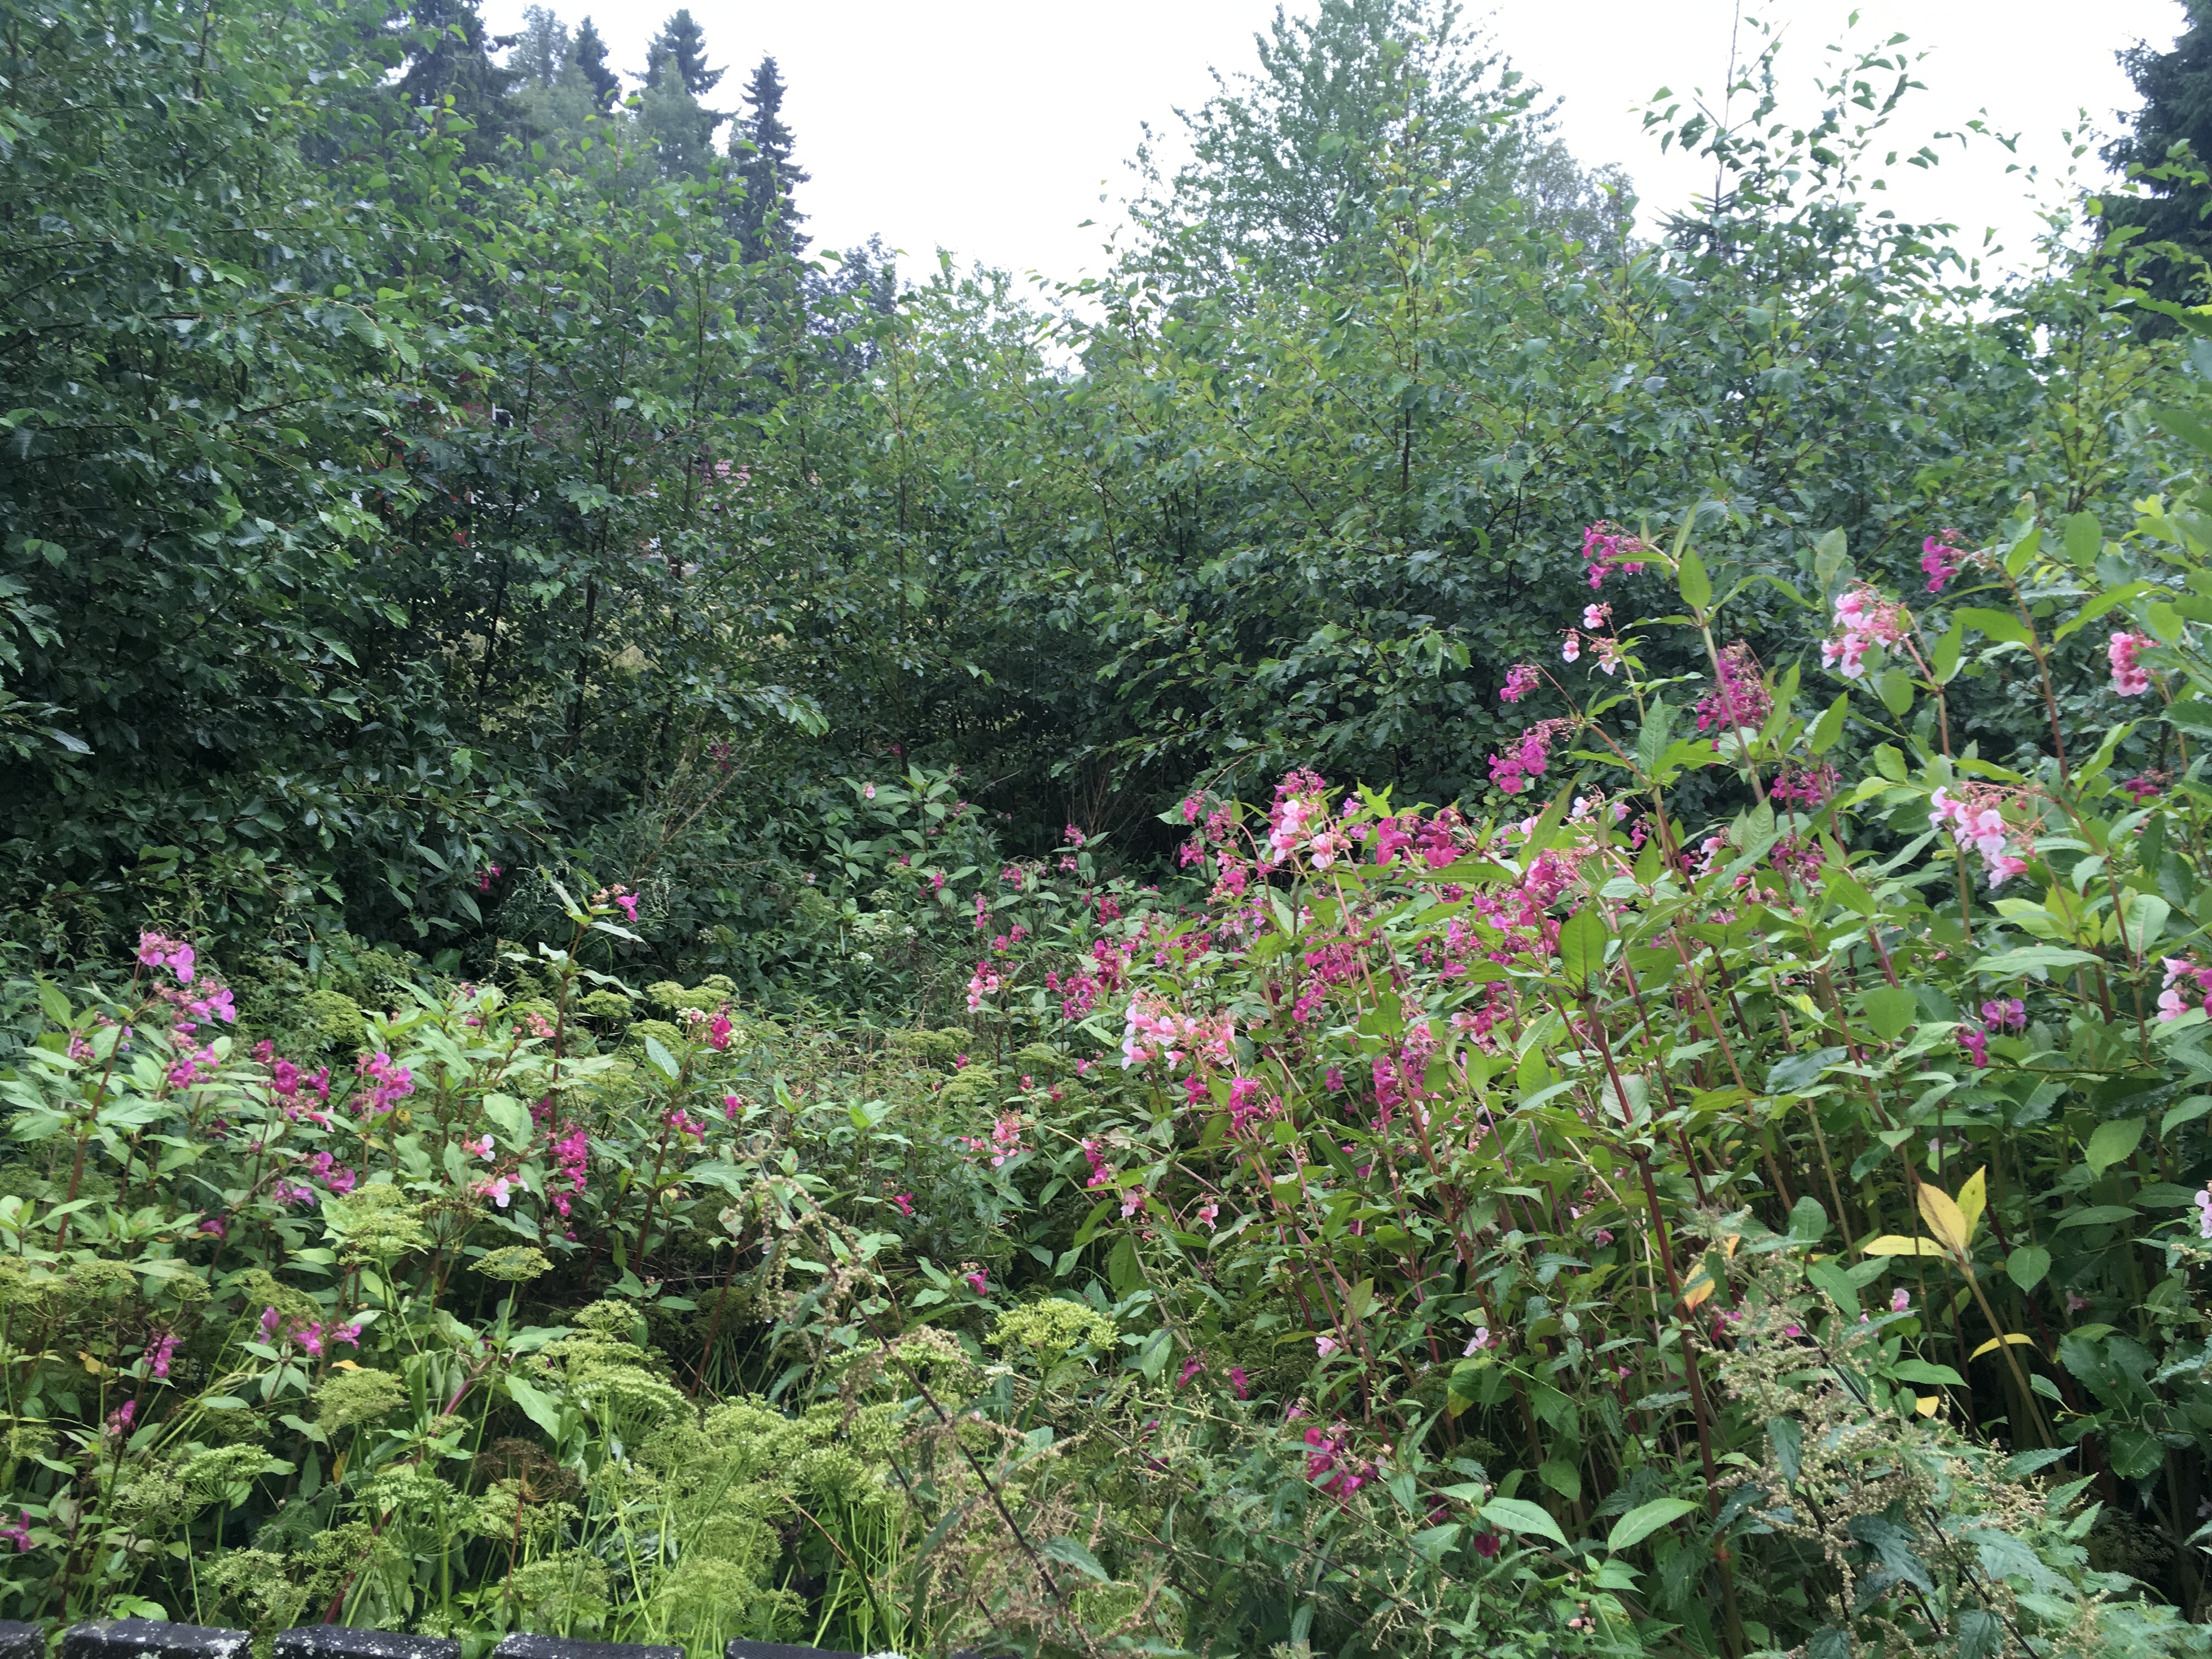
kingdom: Plantae
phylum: Tracheophyta
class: Magnoliopsida
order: Ericales
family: Balsaminaceae
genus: Impatiens
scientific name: Impatiens glandulifera
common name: Himalayan balsam
